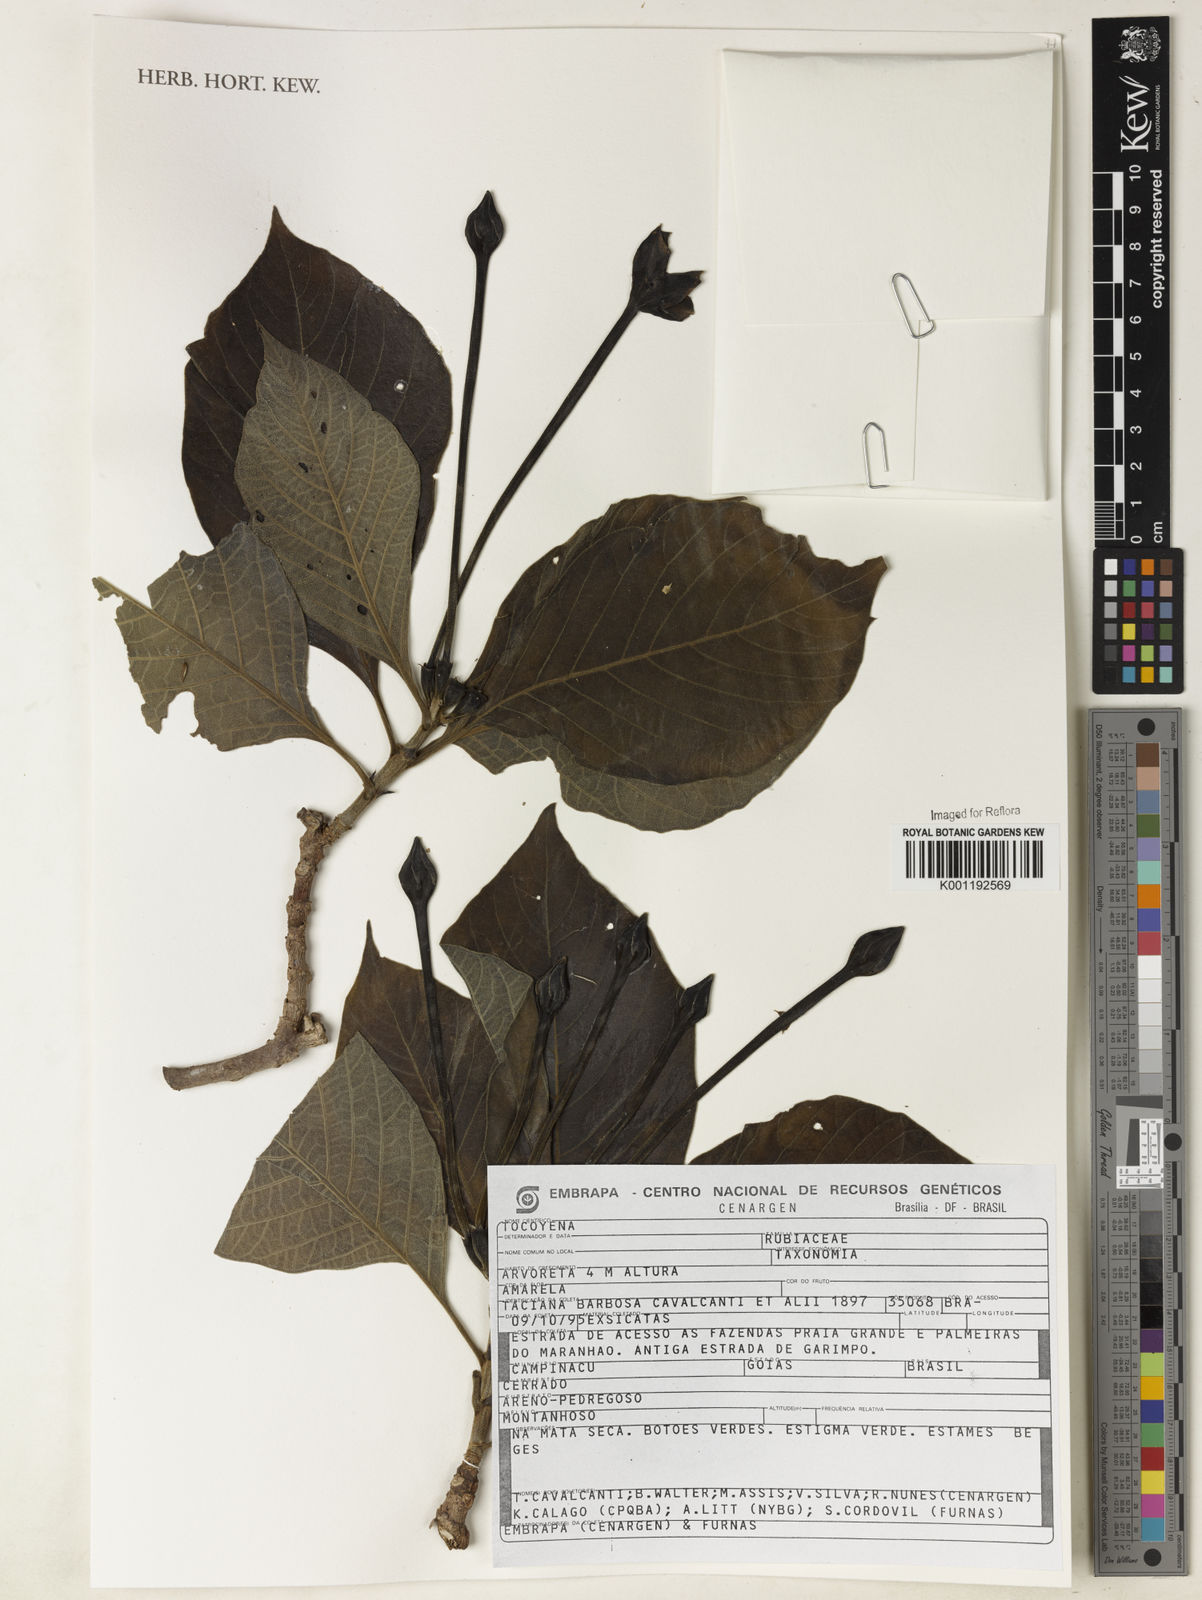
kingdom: Plantae
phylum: Tracheophyta
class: Magnoliopsida
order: Gentianales
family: Rubiaceae
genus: Tocoyena
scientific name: Tocoyena formosa
